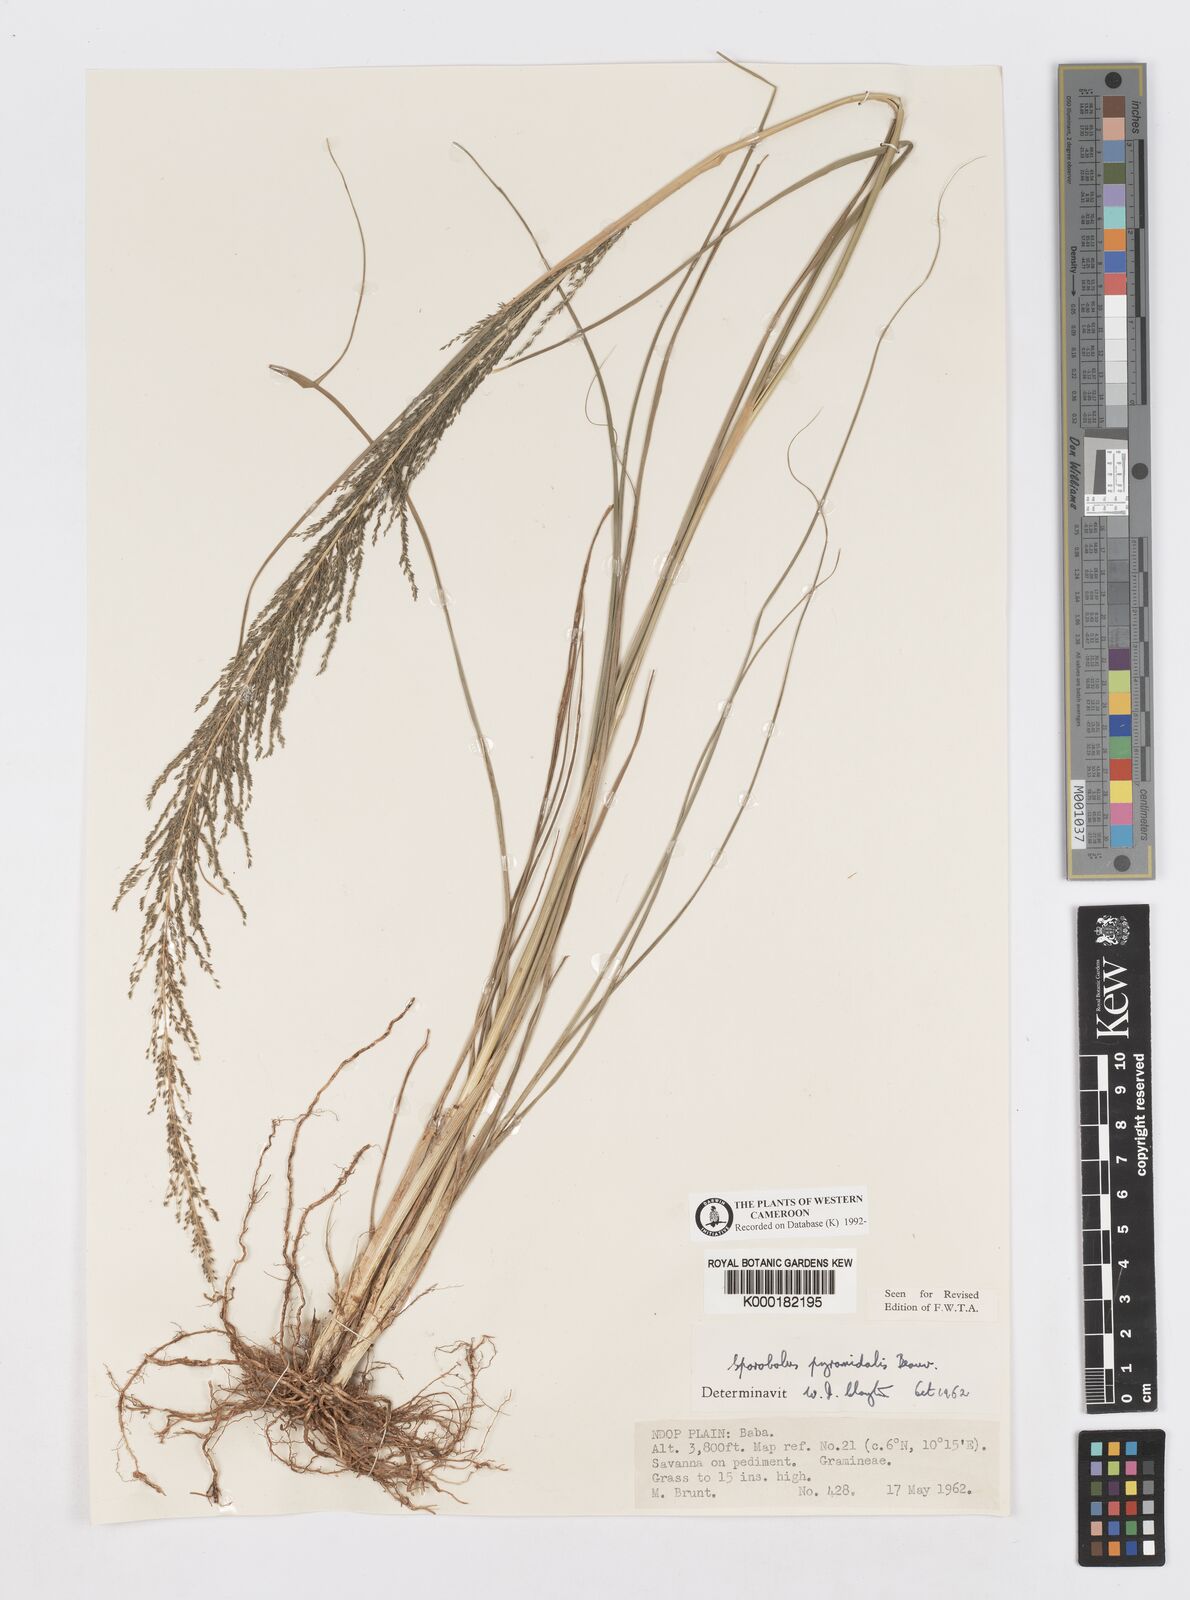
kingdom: Plantae
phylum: Tracheophyta
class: Liliopsida
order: Poales
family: Poaceae
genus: Sporobolus
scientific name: Sporobolus pyramidalis
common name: West indian dropseed
